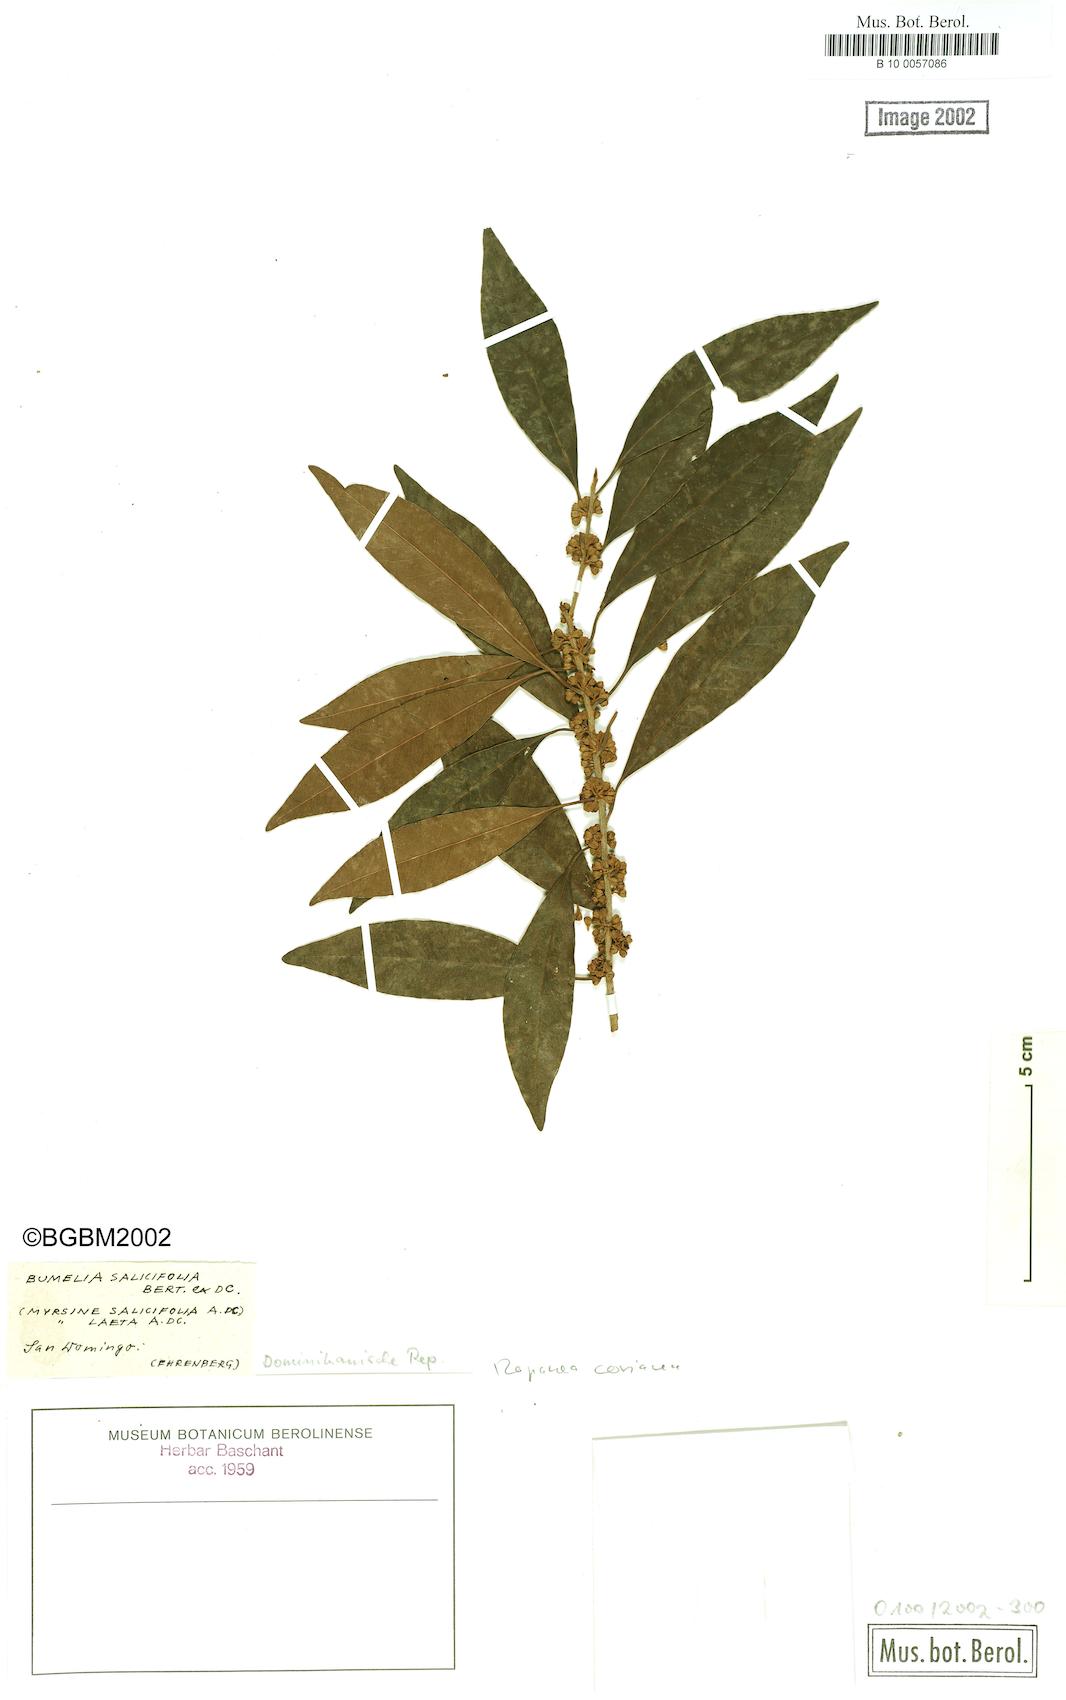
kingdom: Plantae
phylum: Tracheophyta
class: Magnoliopsida
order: Ericales
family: Primulaceae
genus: Myrsine
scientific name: Myrsine coriacea
